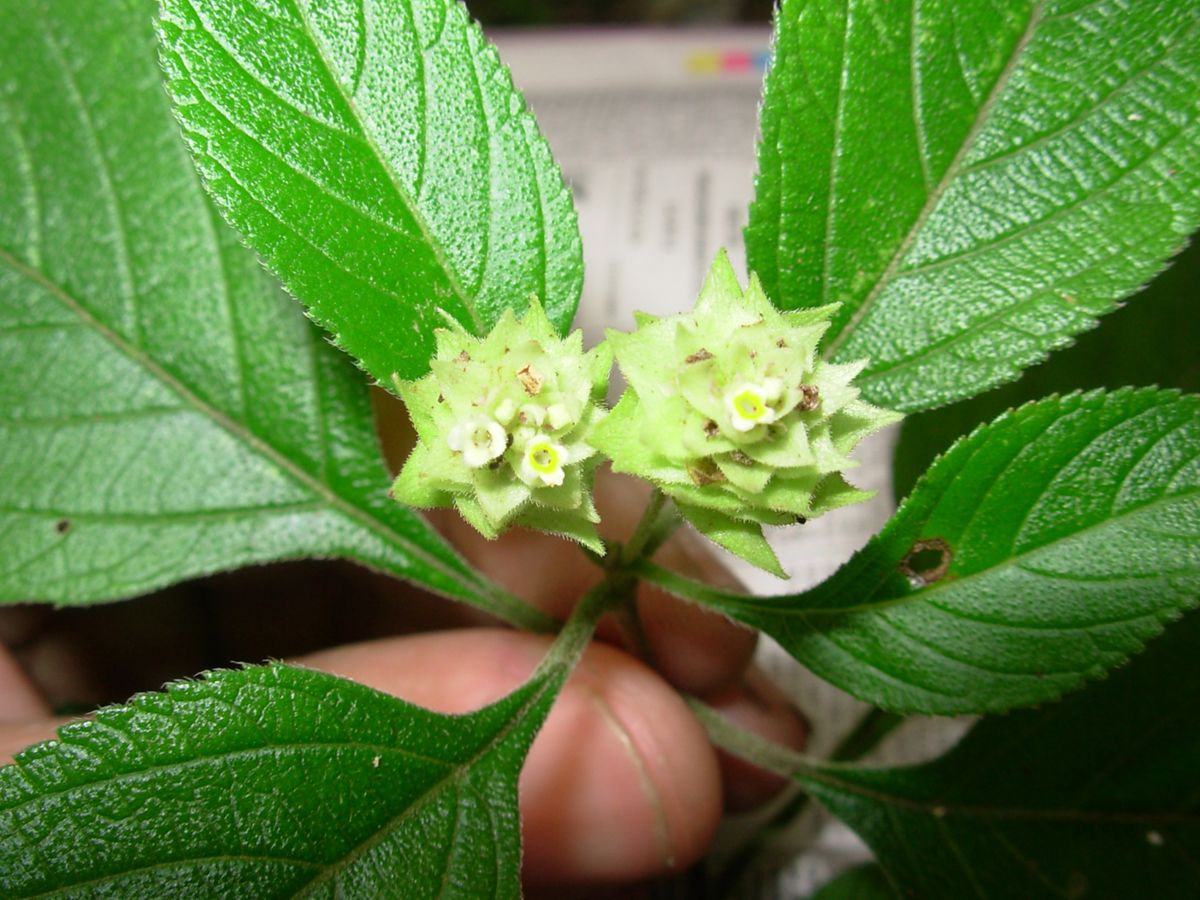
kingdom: Plantae
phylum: Tracheophyta
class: Magnoliopsida
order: Lamiales
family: Verbenaceae
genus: Lippia
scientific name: Lippia cardiostegia
